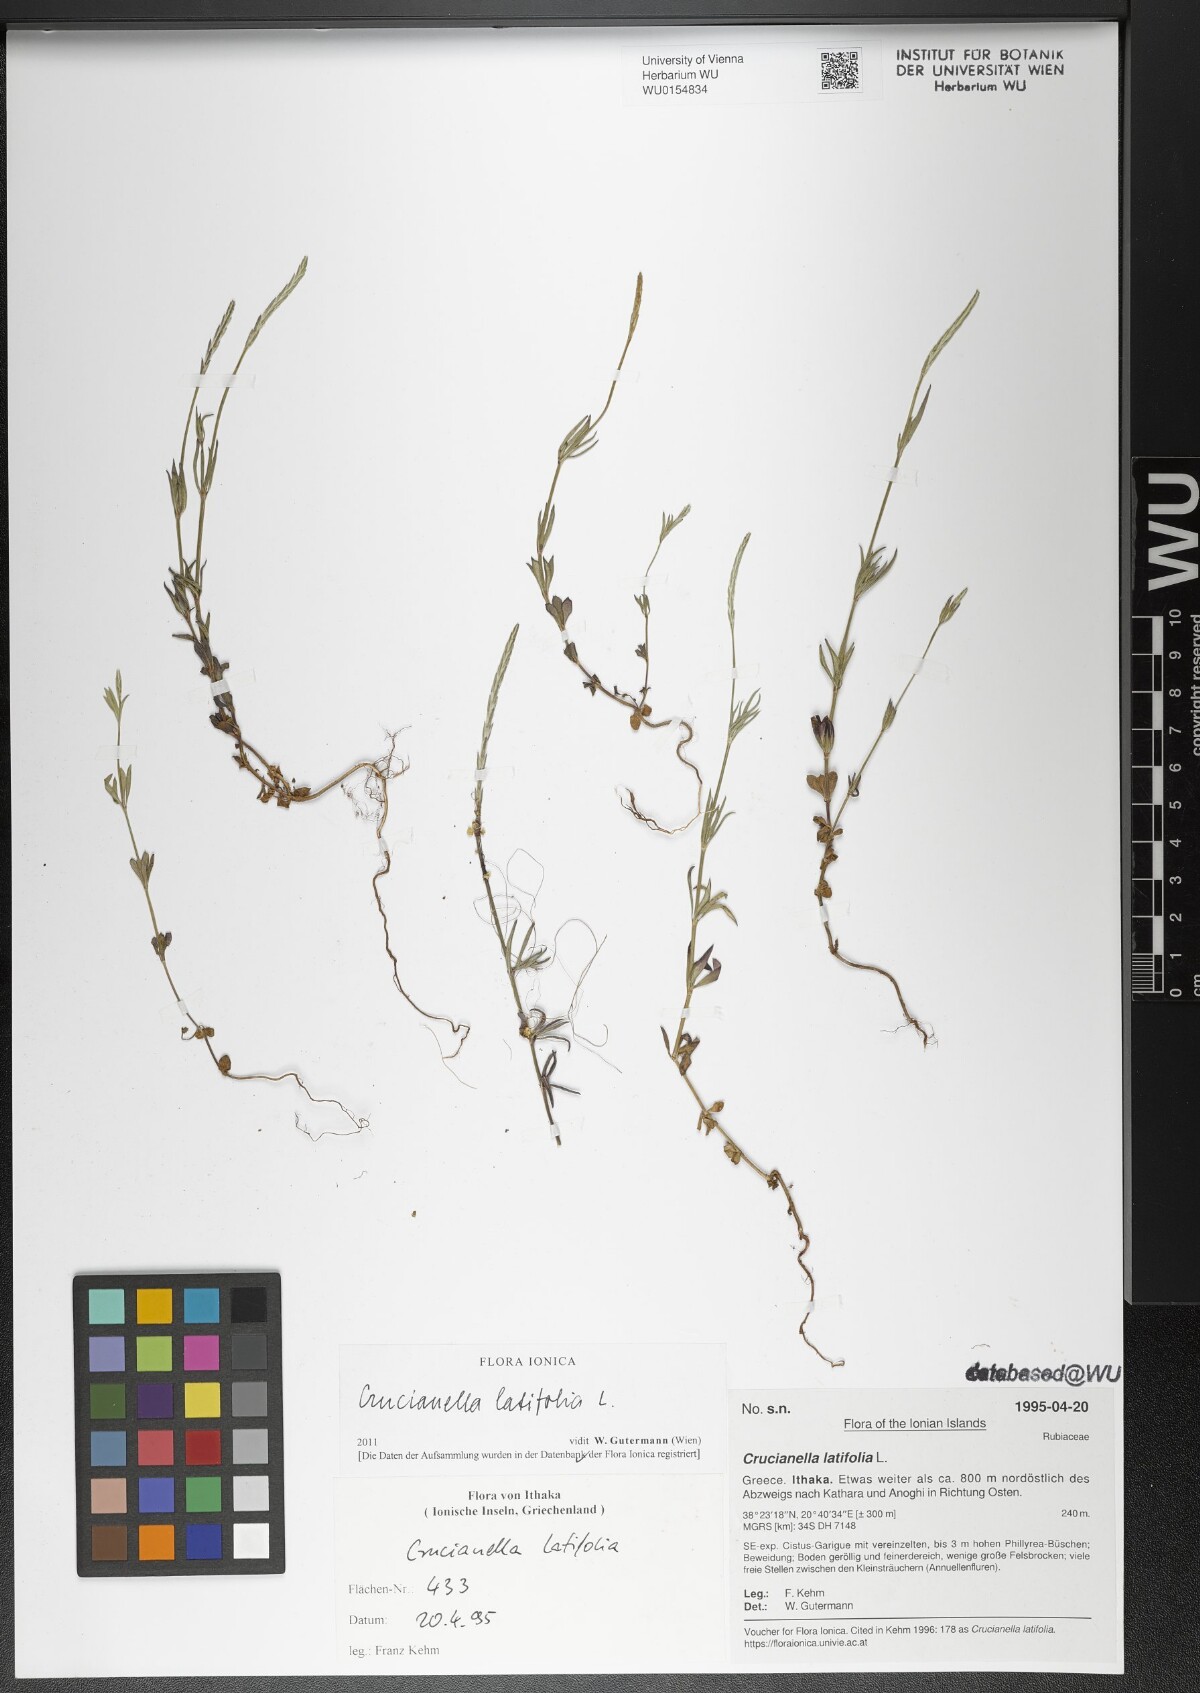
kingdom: Plantae
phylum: Tracheophyta
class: Magnoliopsida
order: Gentianales
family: Rubiaceae
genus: Crucianella
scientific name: Crucianella latifolia
